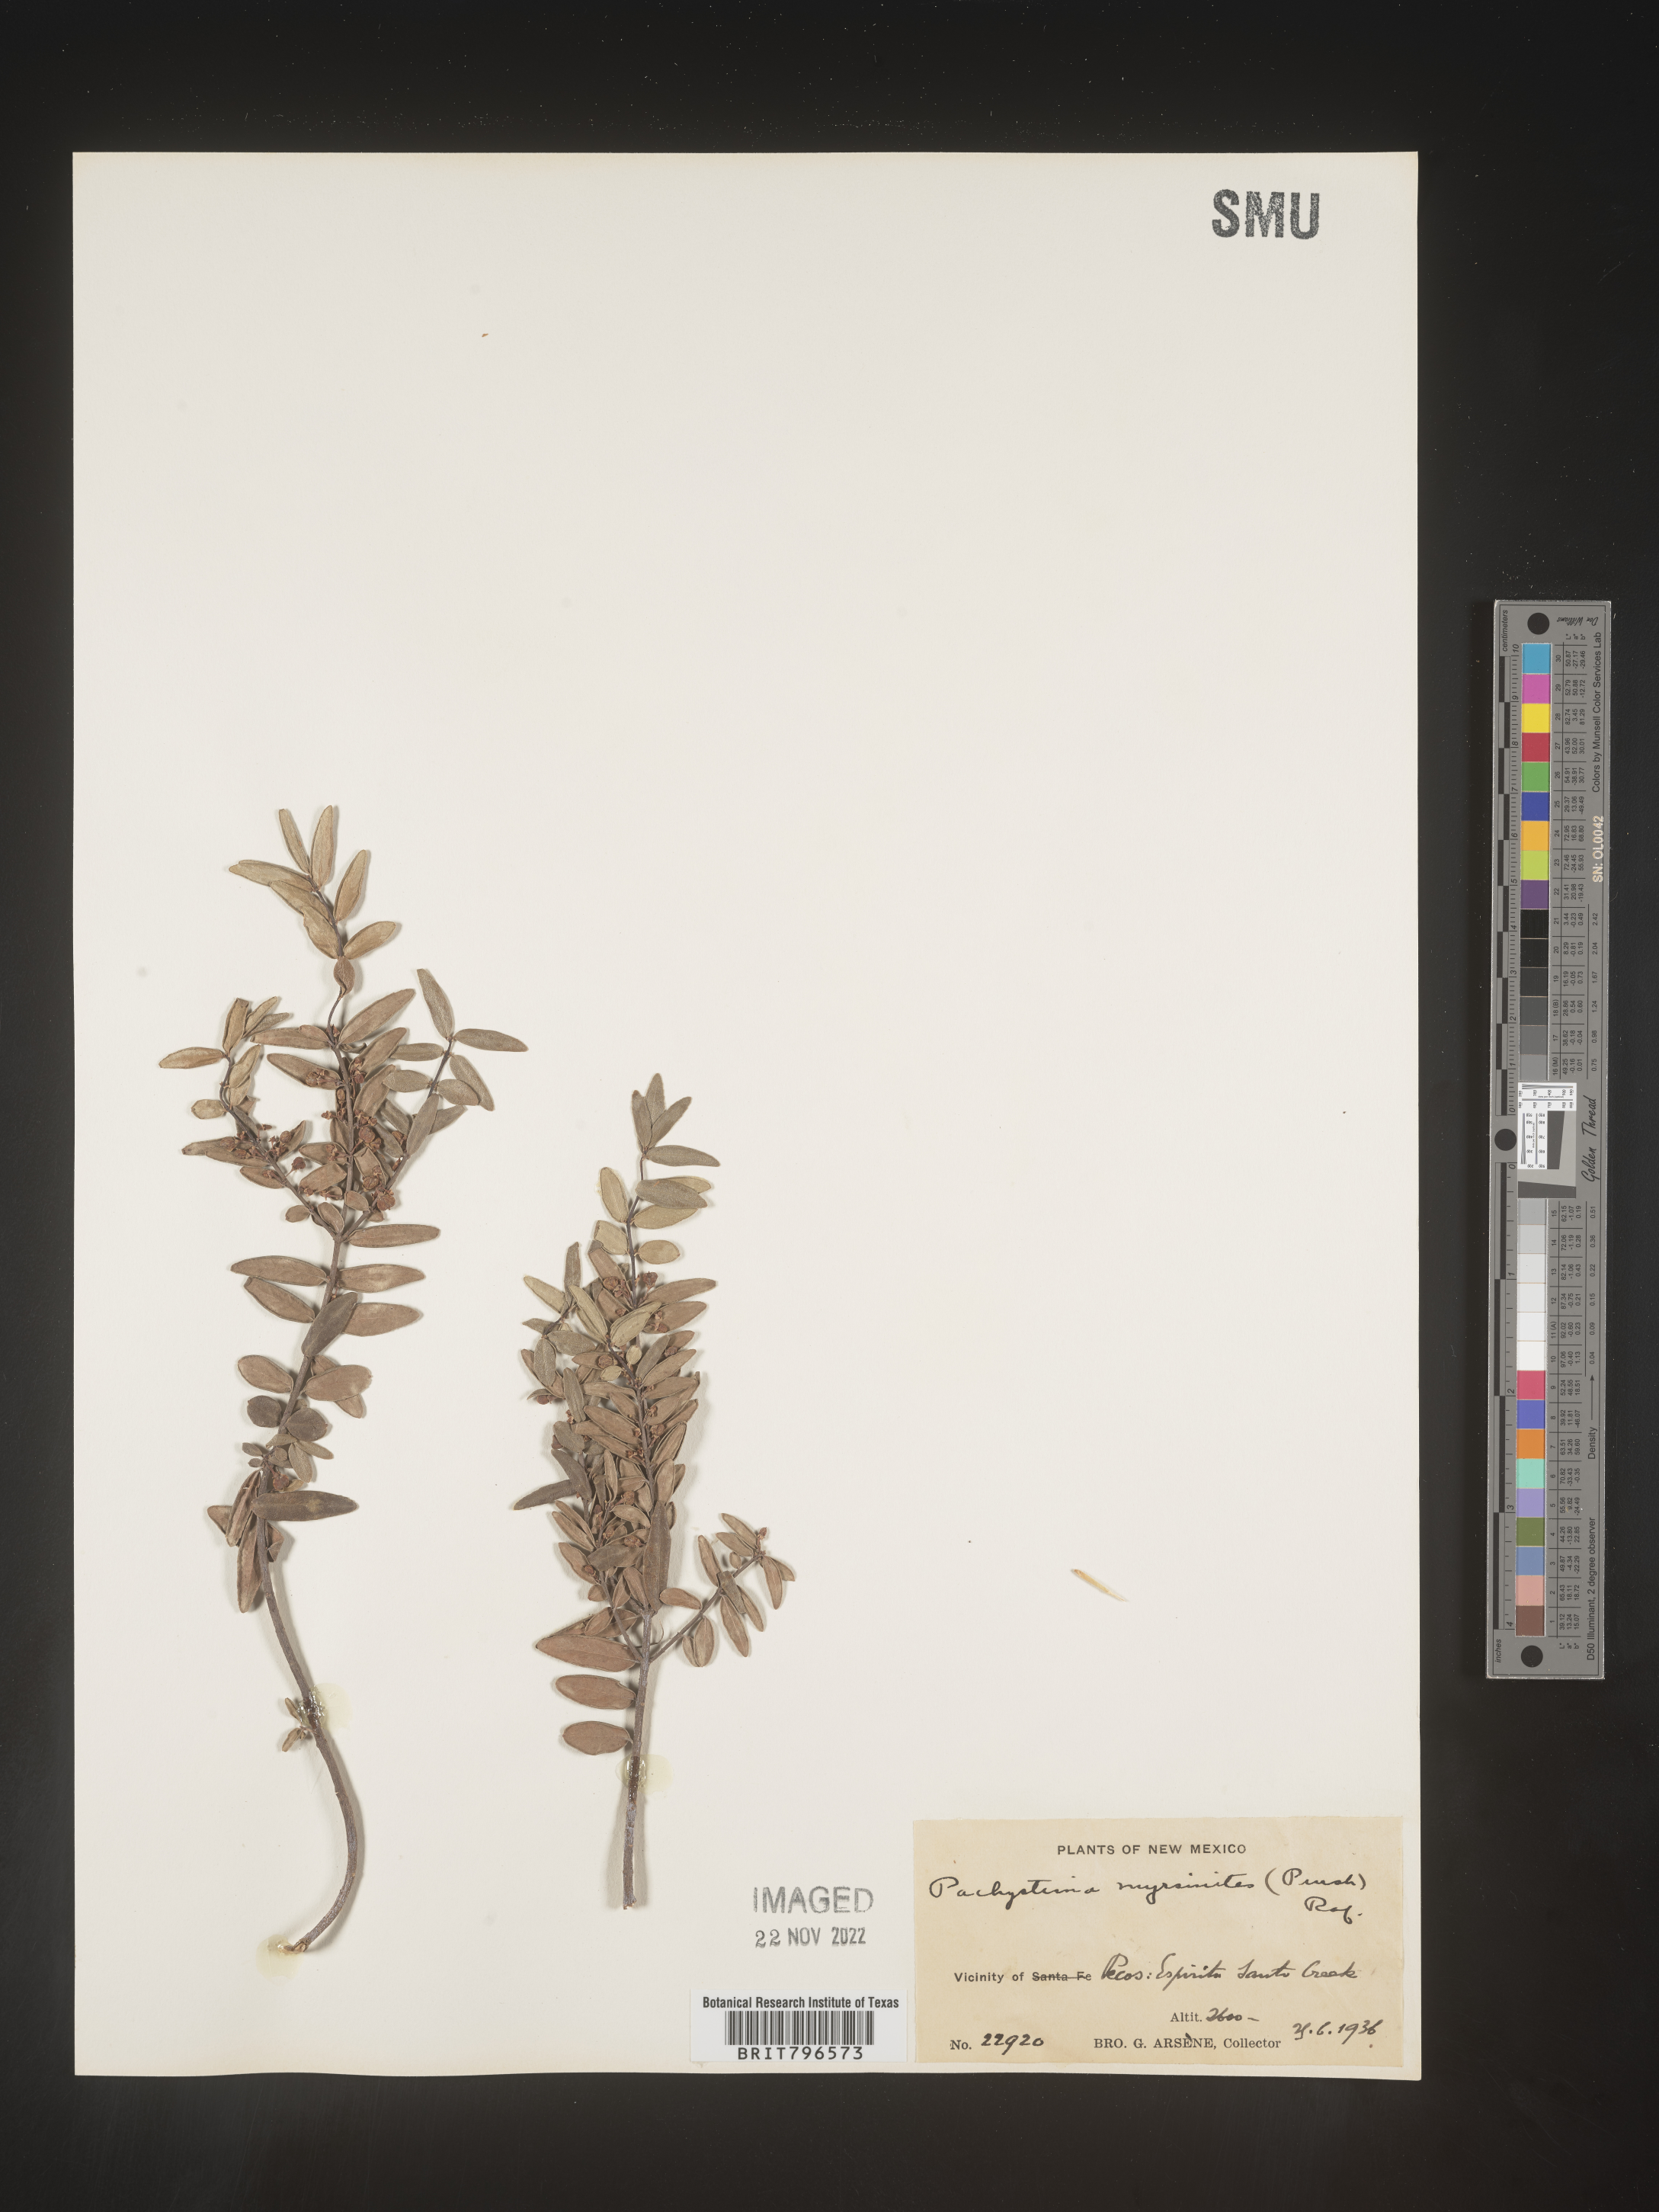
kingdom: Plantae
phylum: Tracheophyta
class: Magnoliopsida
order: Celastrales
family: Celastraceae
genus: Paxistima
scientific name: Paxistima myrsinites
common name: Mountain-lover
